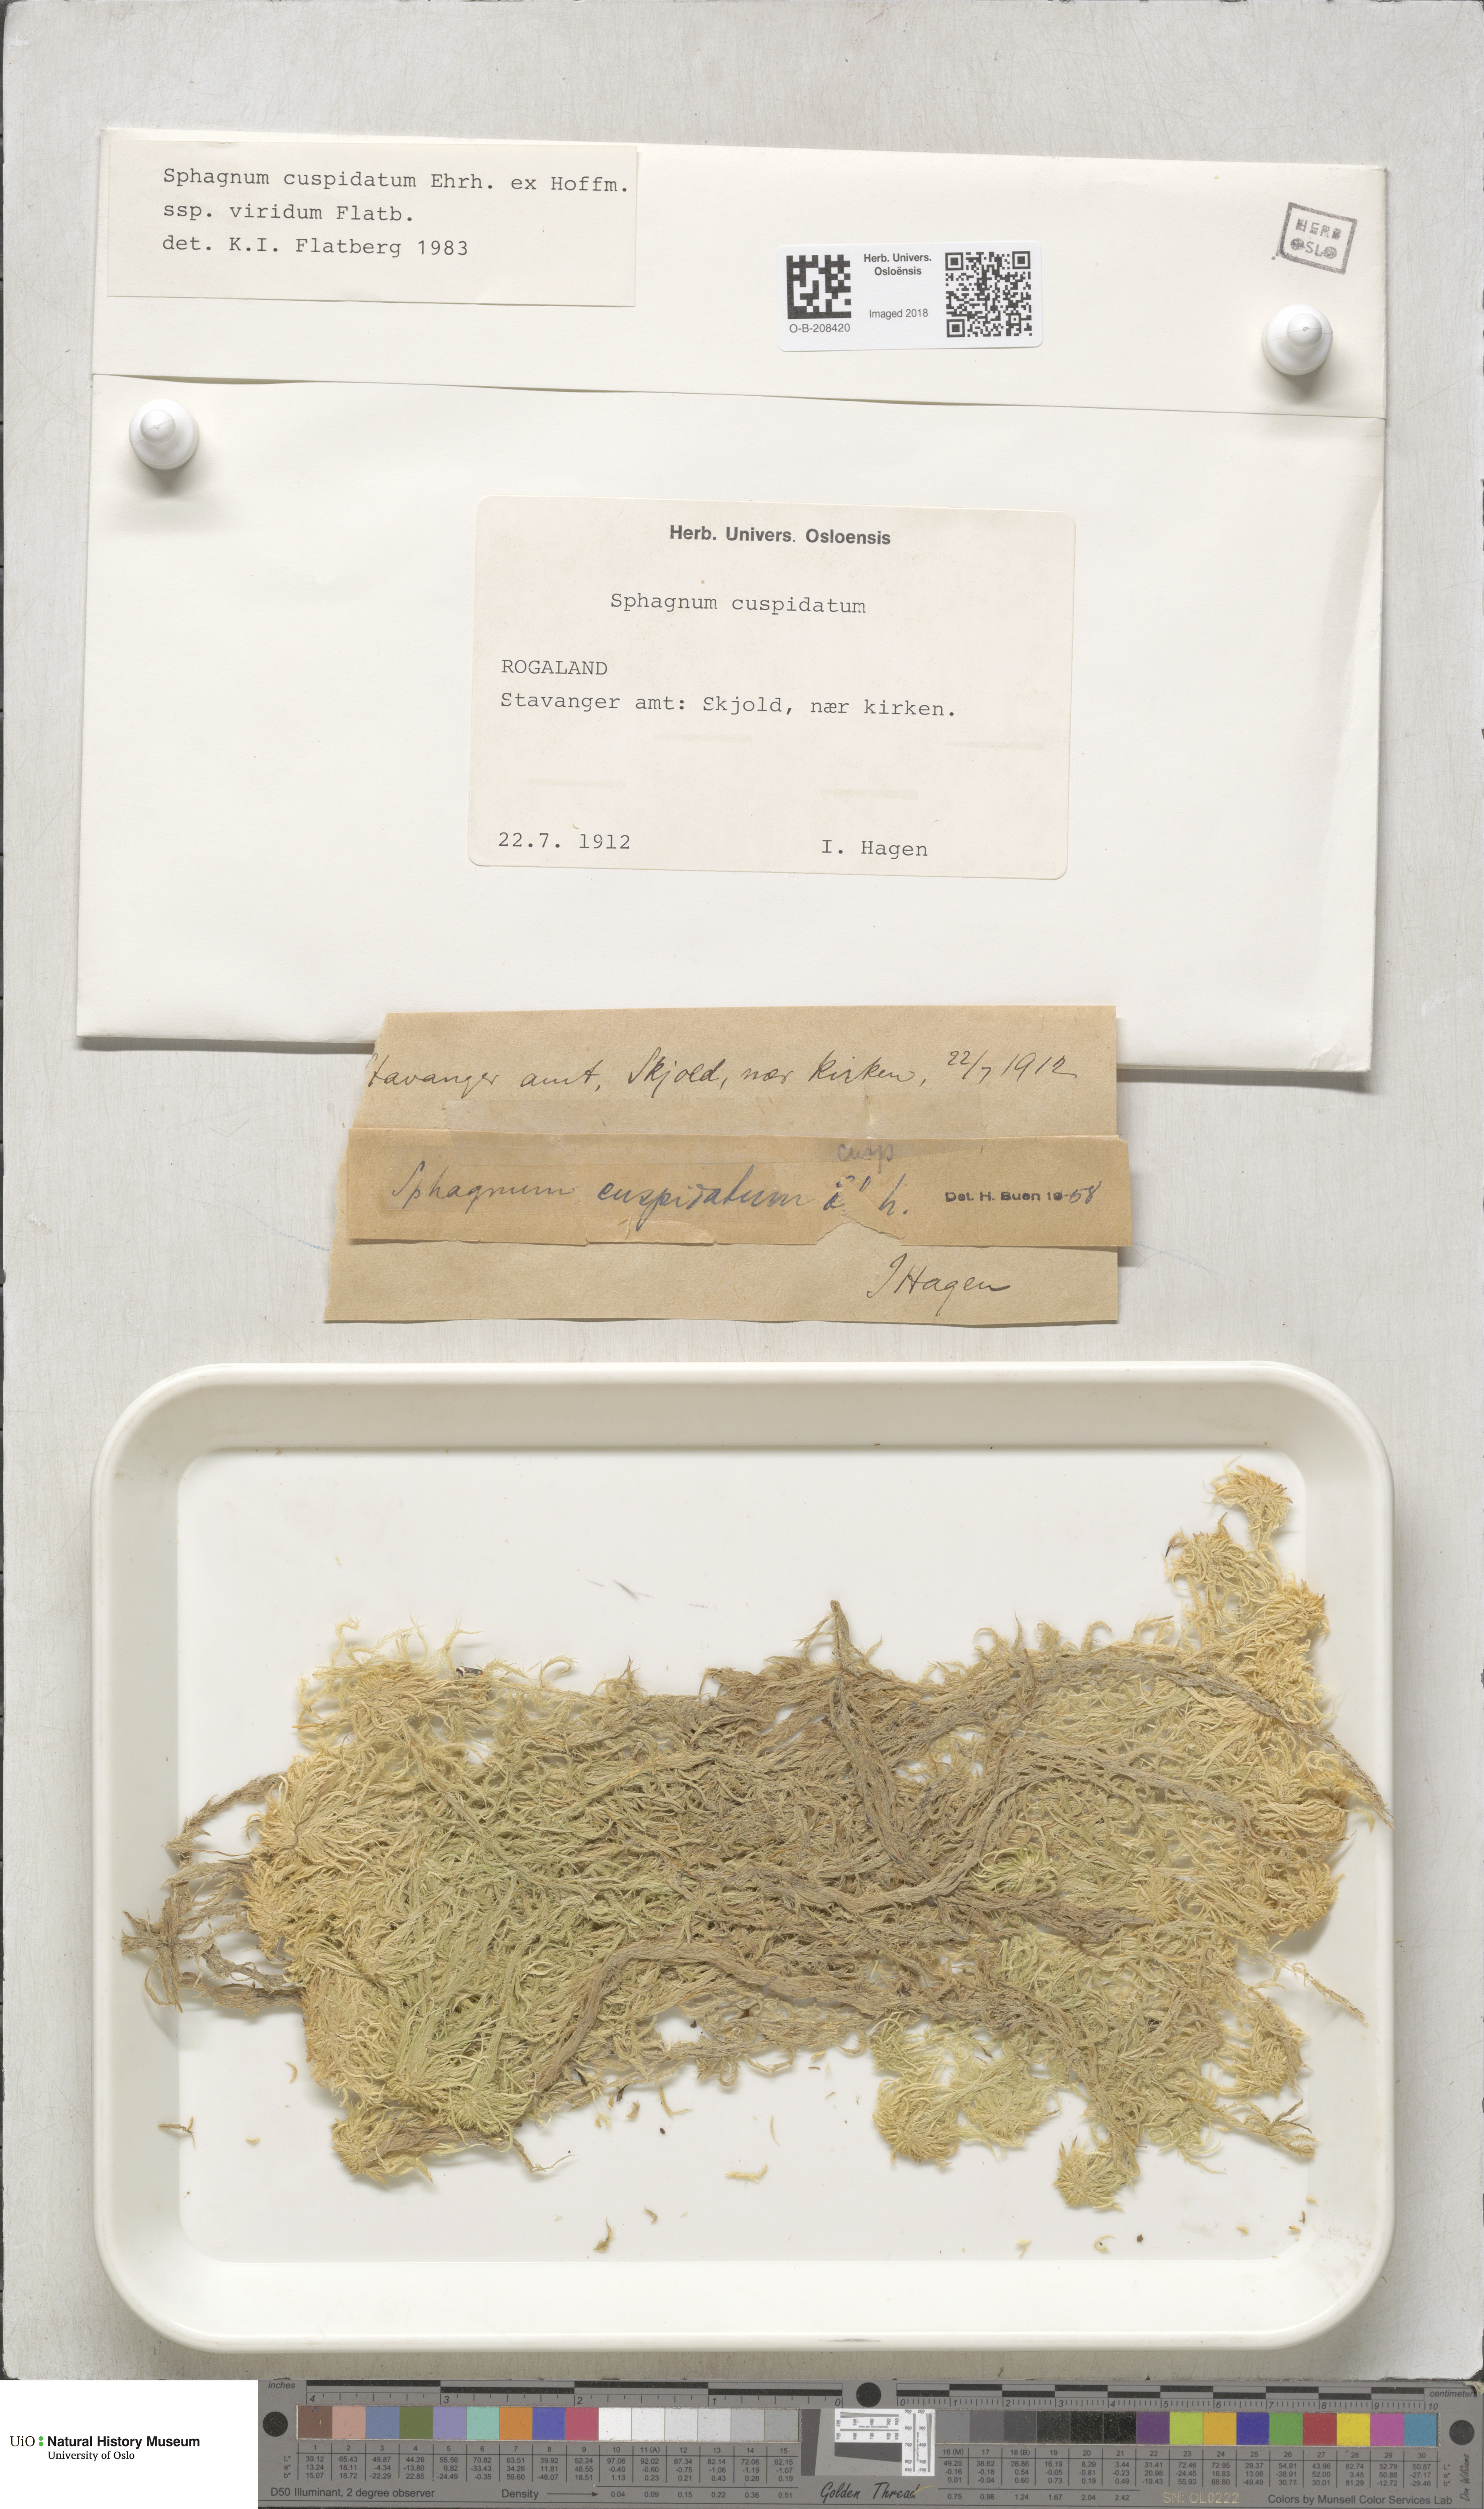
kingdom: Plantae
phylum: Bryophyta
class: Sphagnopsida
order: Sphagnales
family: Sphagnaceae
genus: Sphagnum
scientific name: Sphagnum cuspidatum
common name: Feathery peat moss
